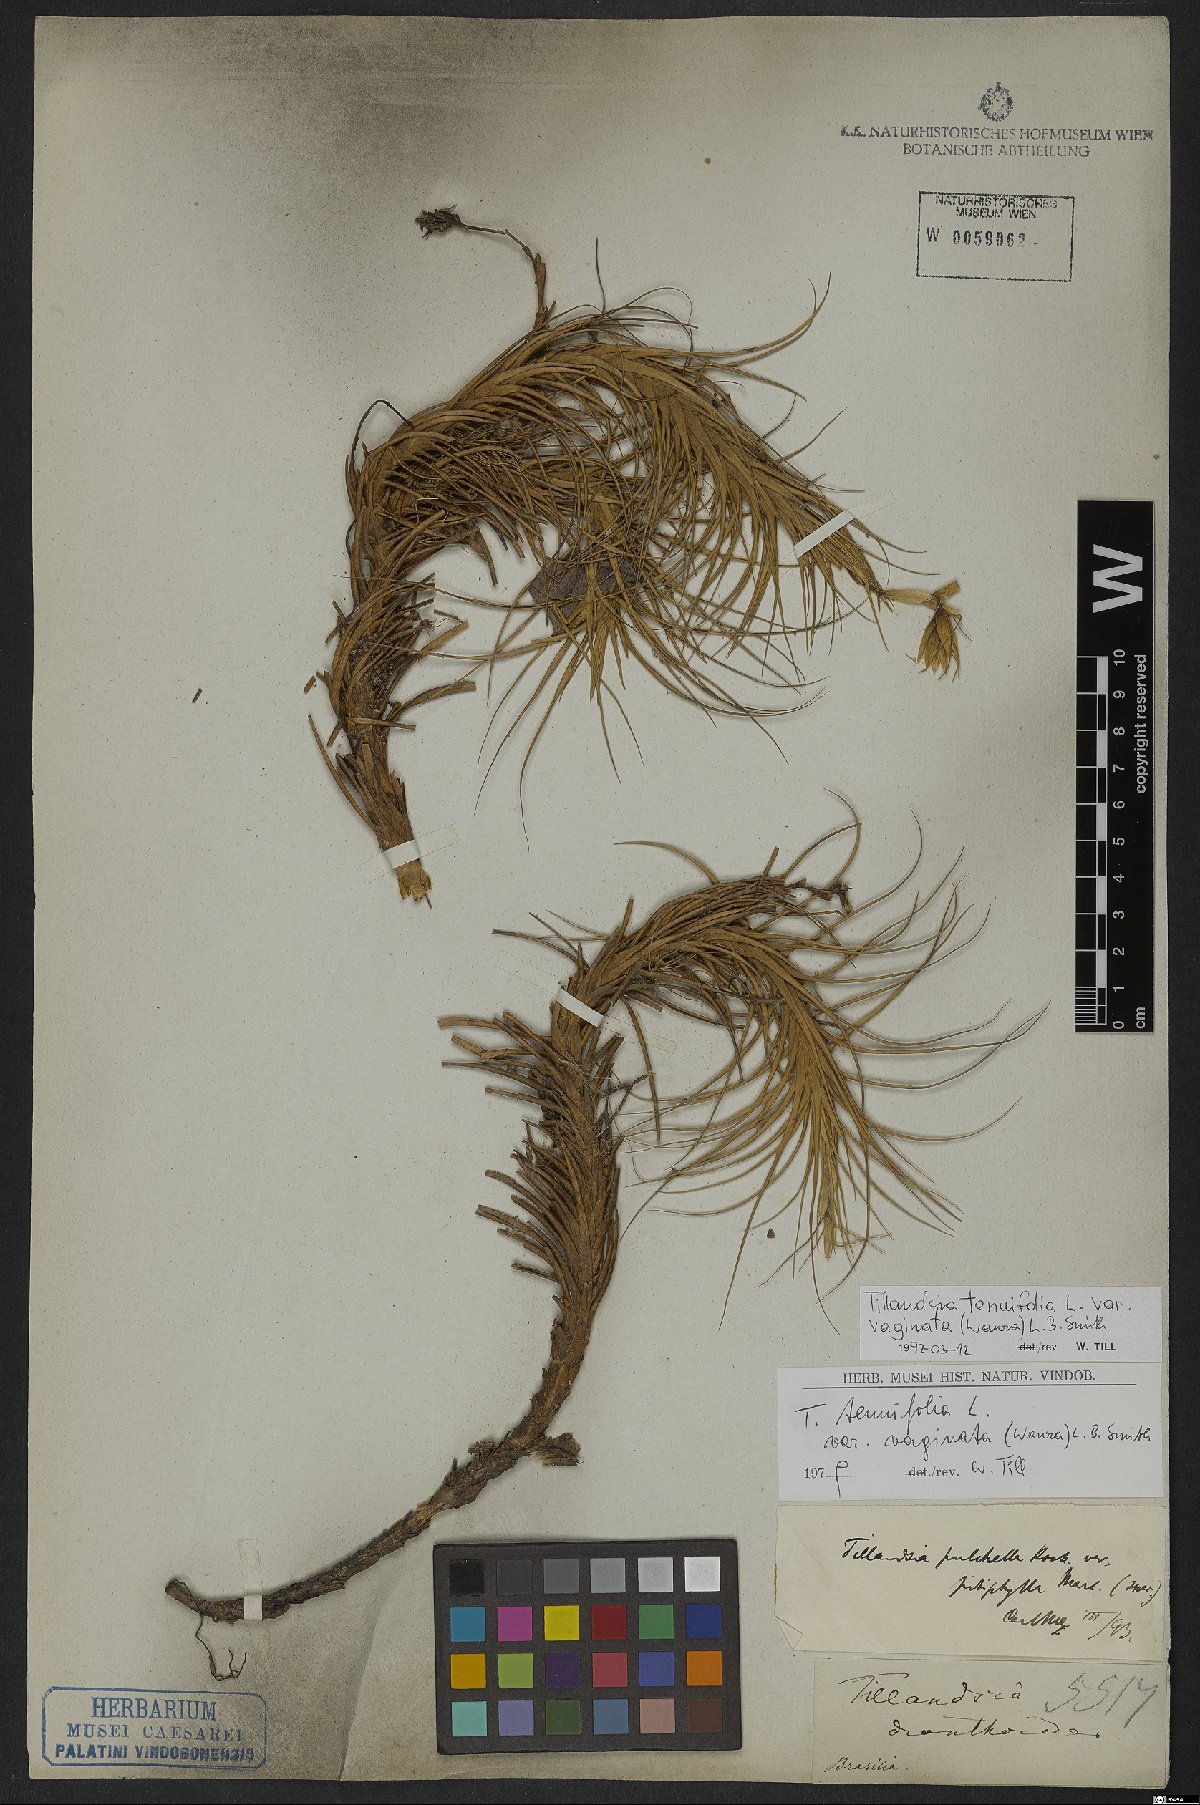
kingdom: Plantae
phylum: Tracheophyta
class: Liliopsida
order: Poales
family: Bromeliaceae
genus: Tillandsia
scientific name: Tillandsia tenuifolia
